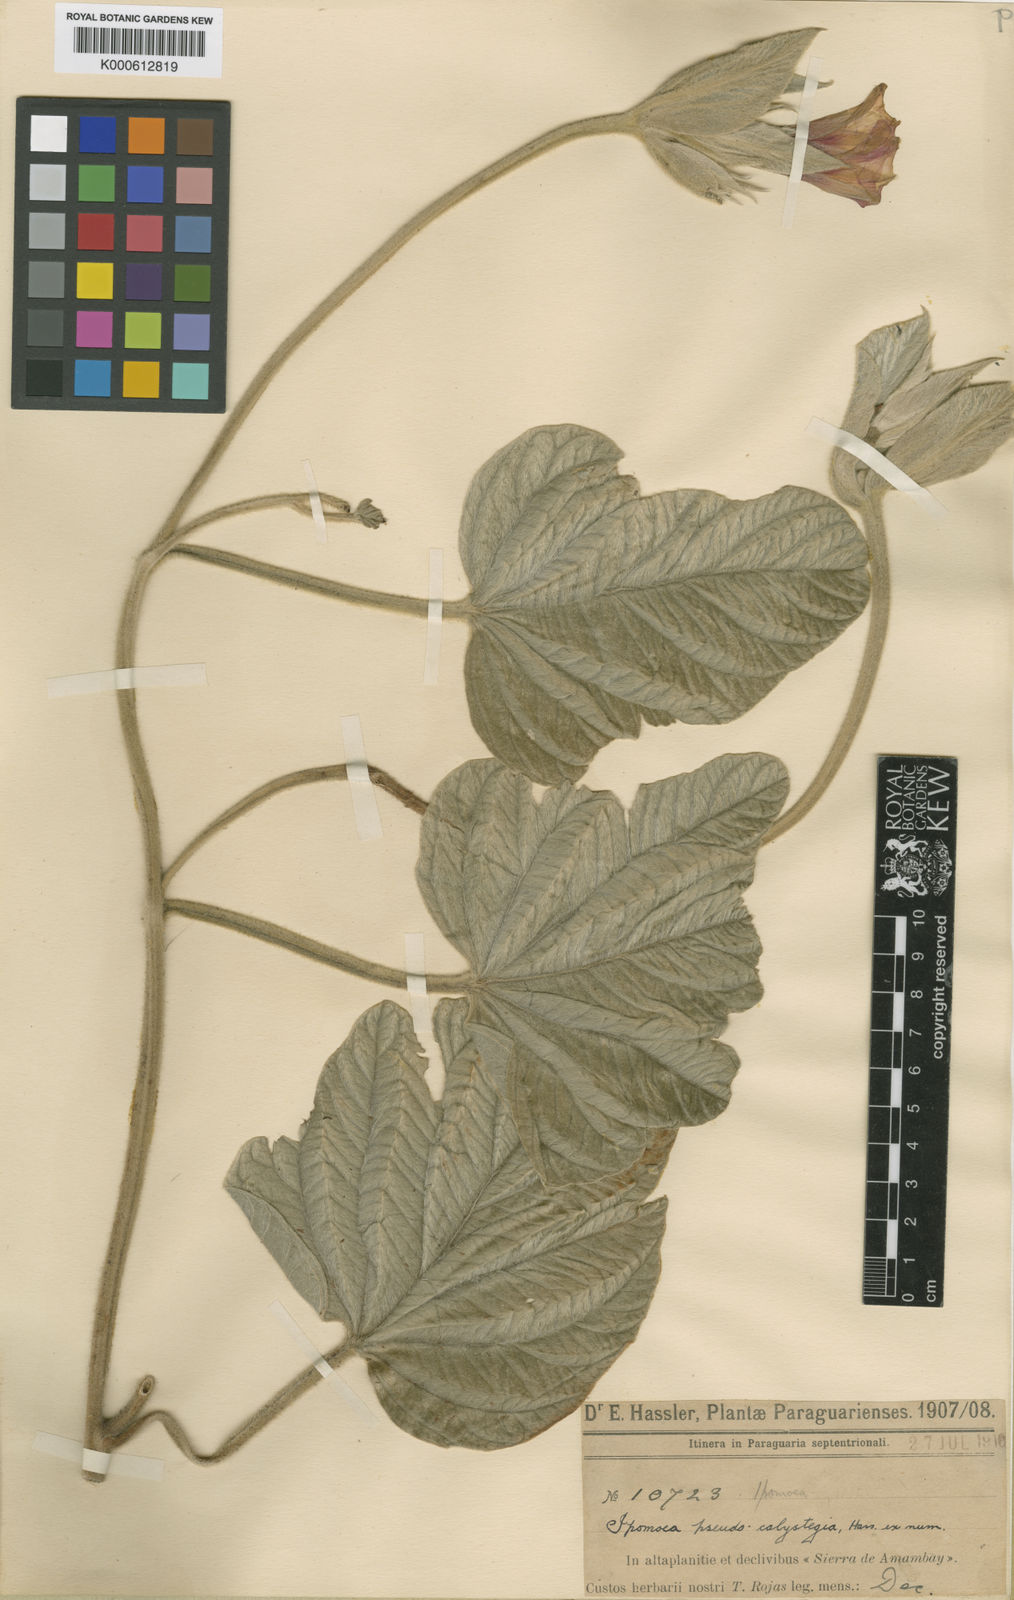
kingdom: Plantae
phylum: Tracheophyta
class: Magnoliopsida
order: Solanales
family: Convolvulaceae
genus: Ipomoea
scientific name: Ipomoea pseudocalystegia
